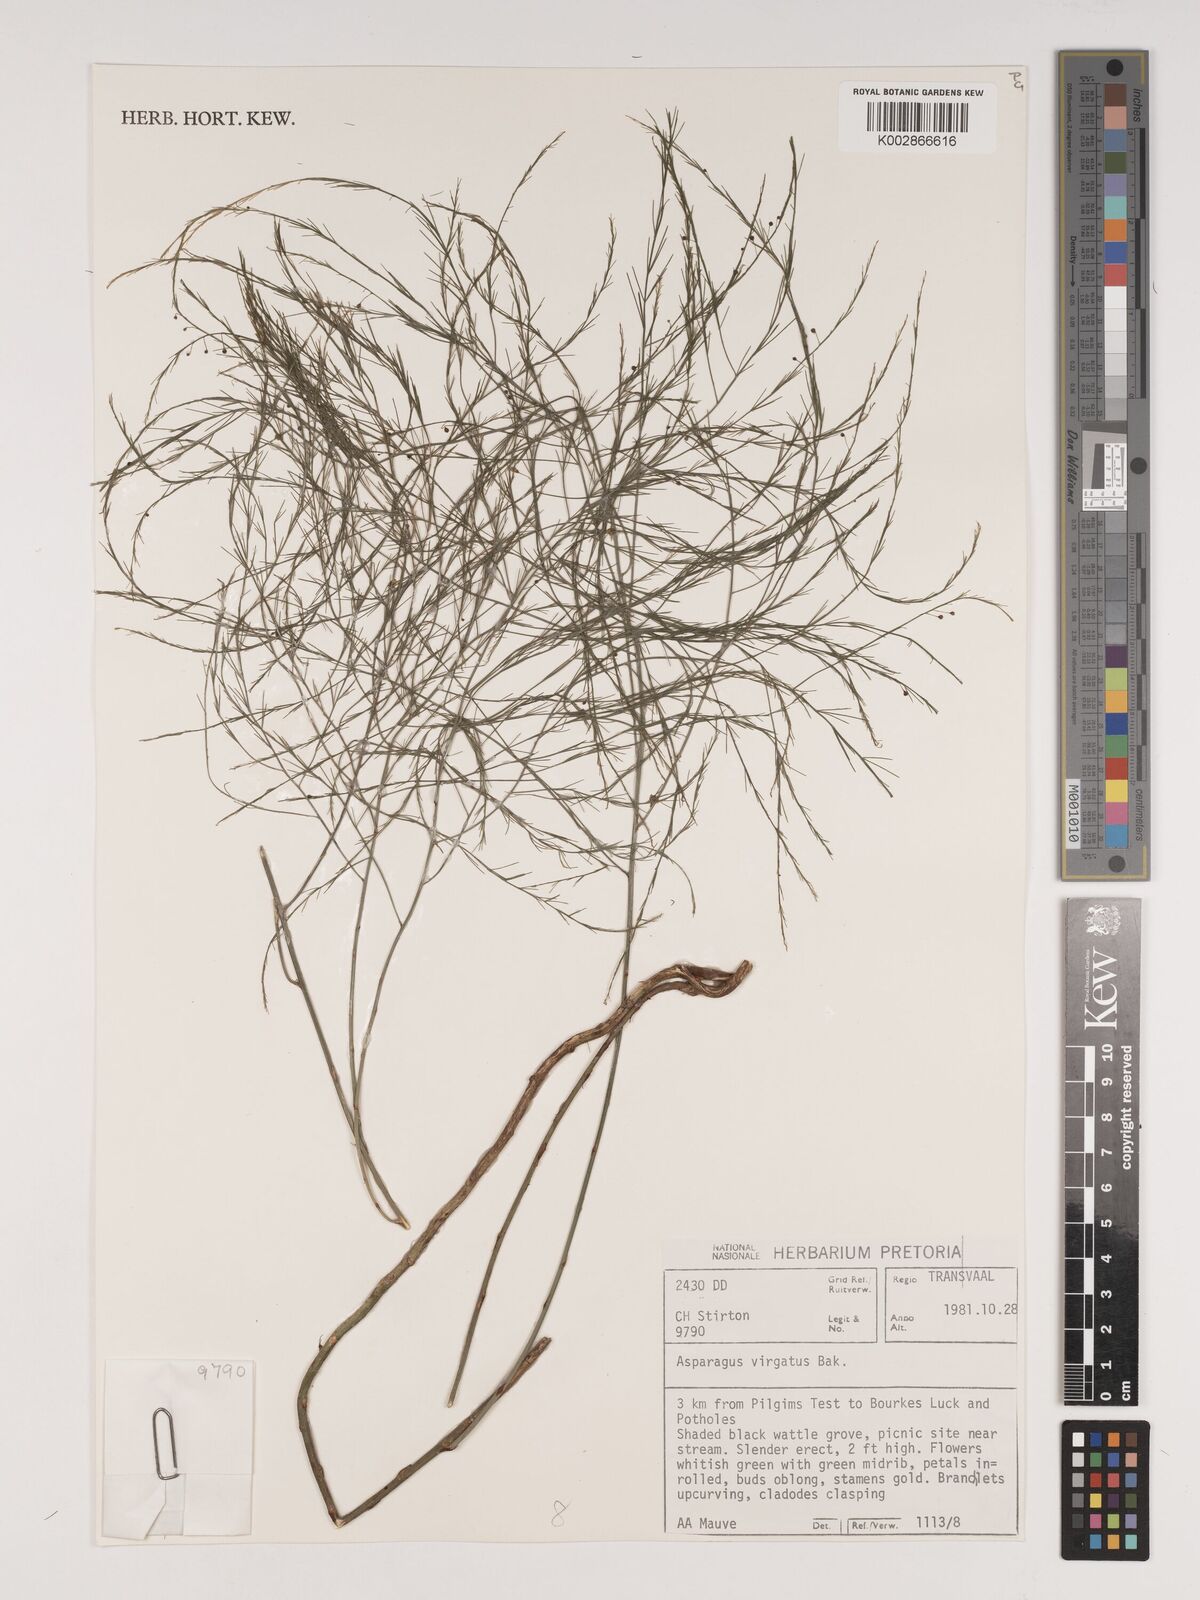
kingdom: Plantae
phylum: Tracheophyta
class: Liliopsida
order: Asparagales
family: Asparagaceae
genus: Asparagus
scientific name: Asparagus virgatus
